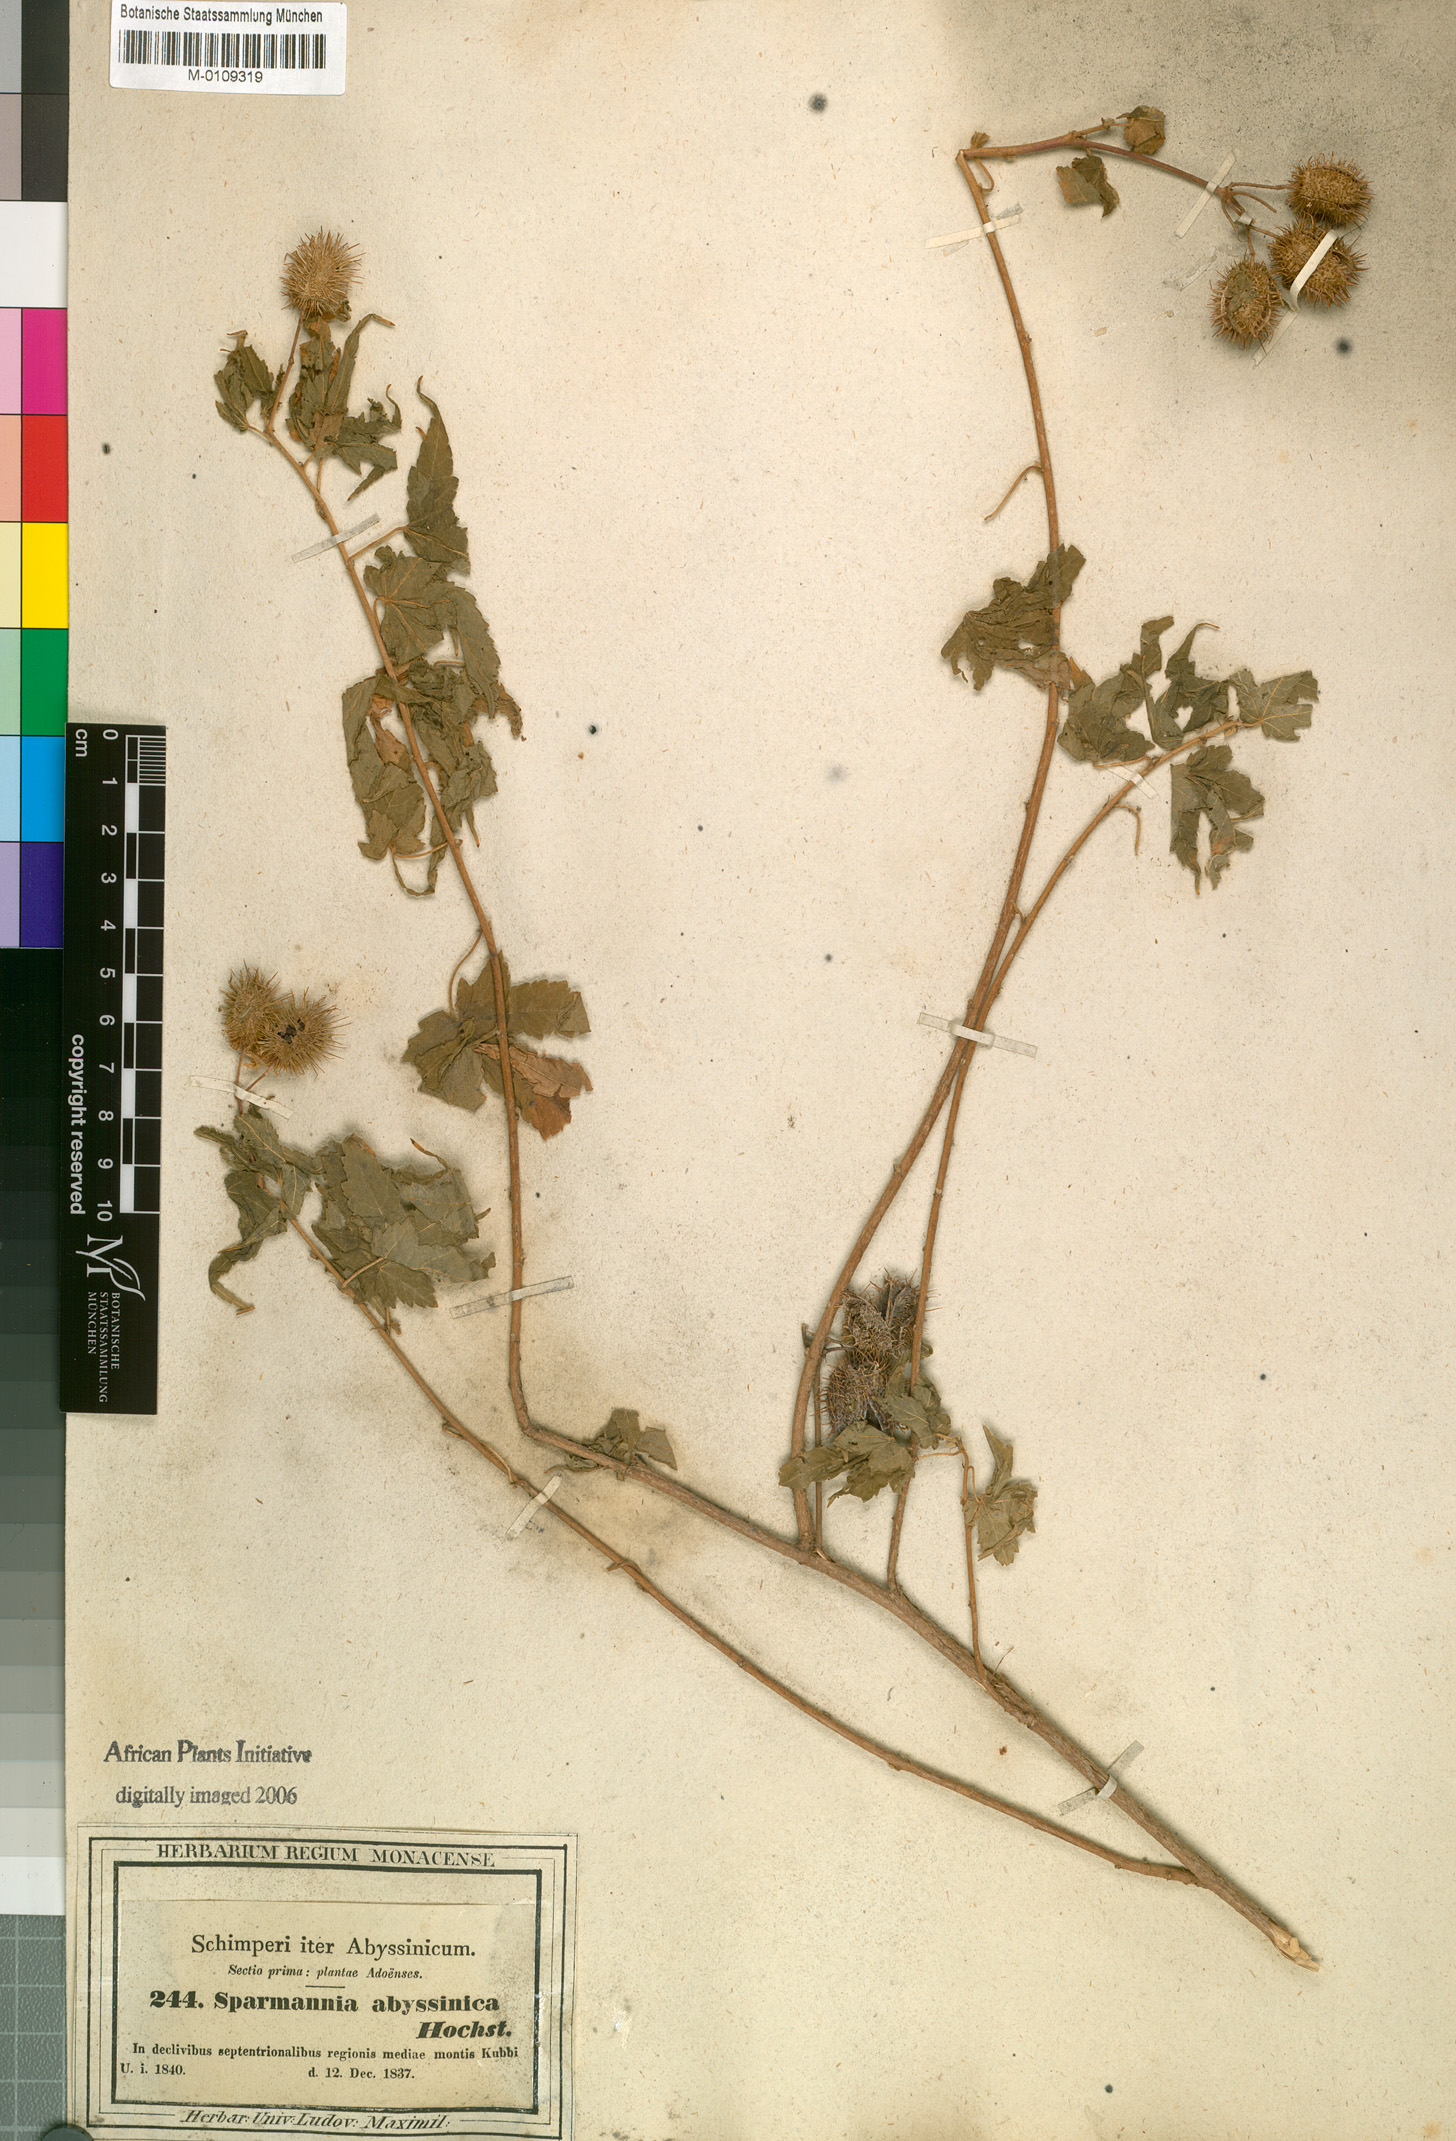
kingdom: Plantae
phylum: Tracheophyta
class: Magnoliopsida
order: Malvales
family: Malvaceae
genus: Sparmannia
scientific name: Sparmannia abyssinica
